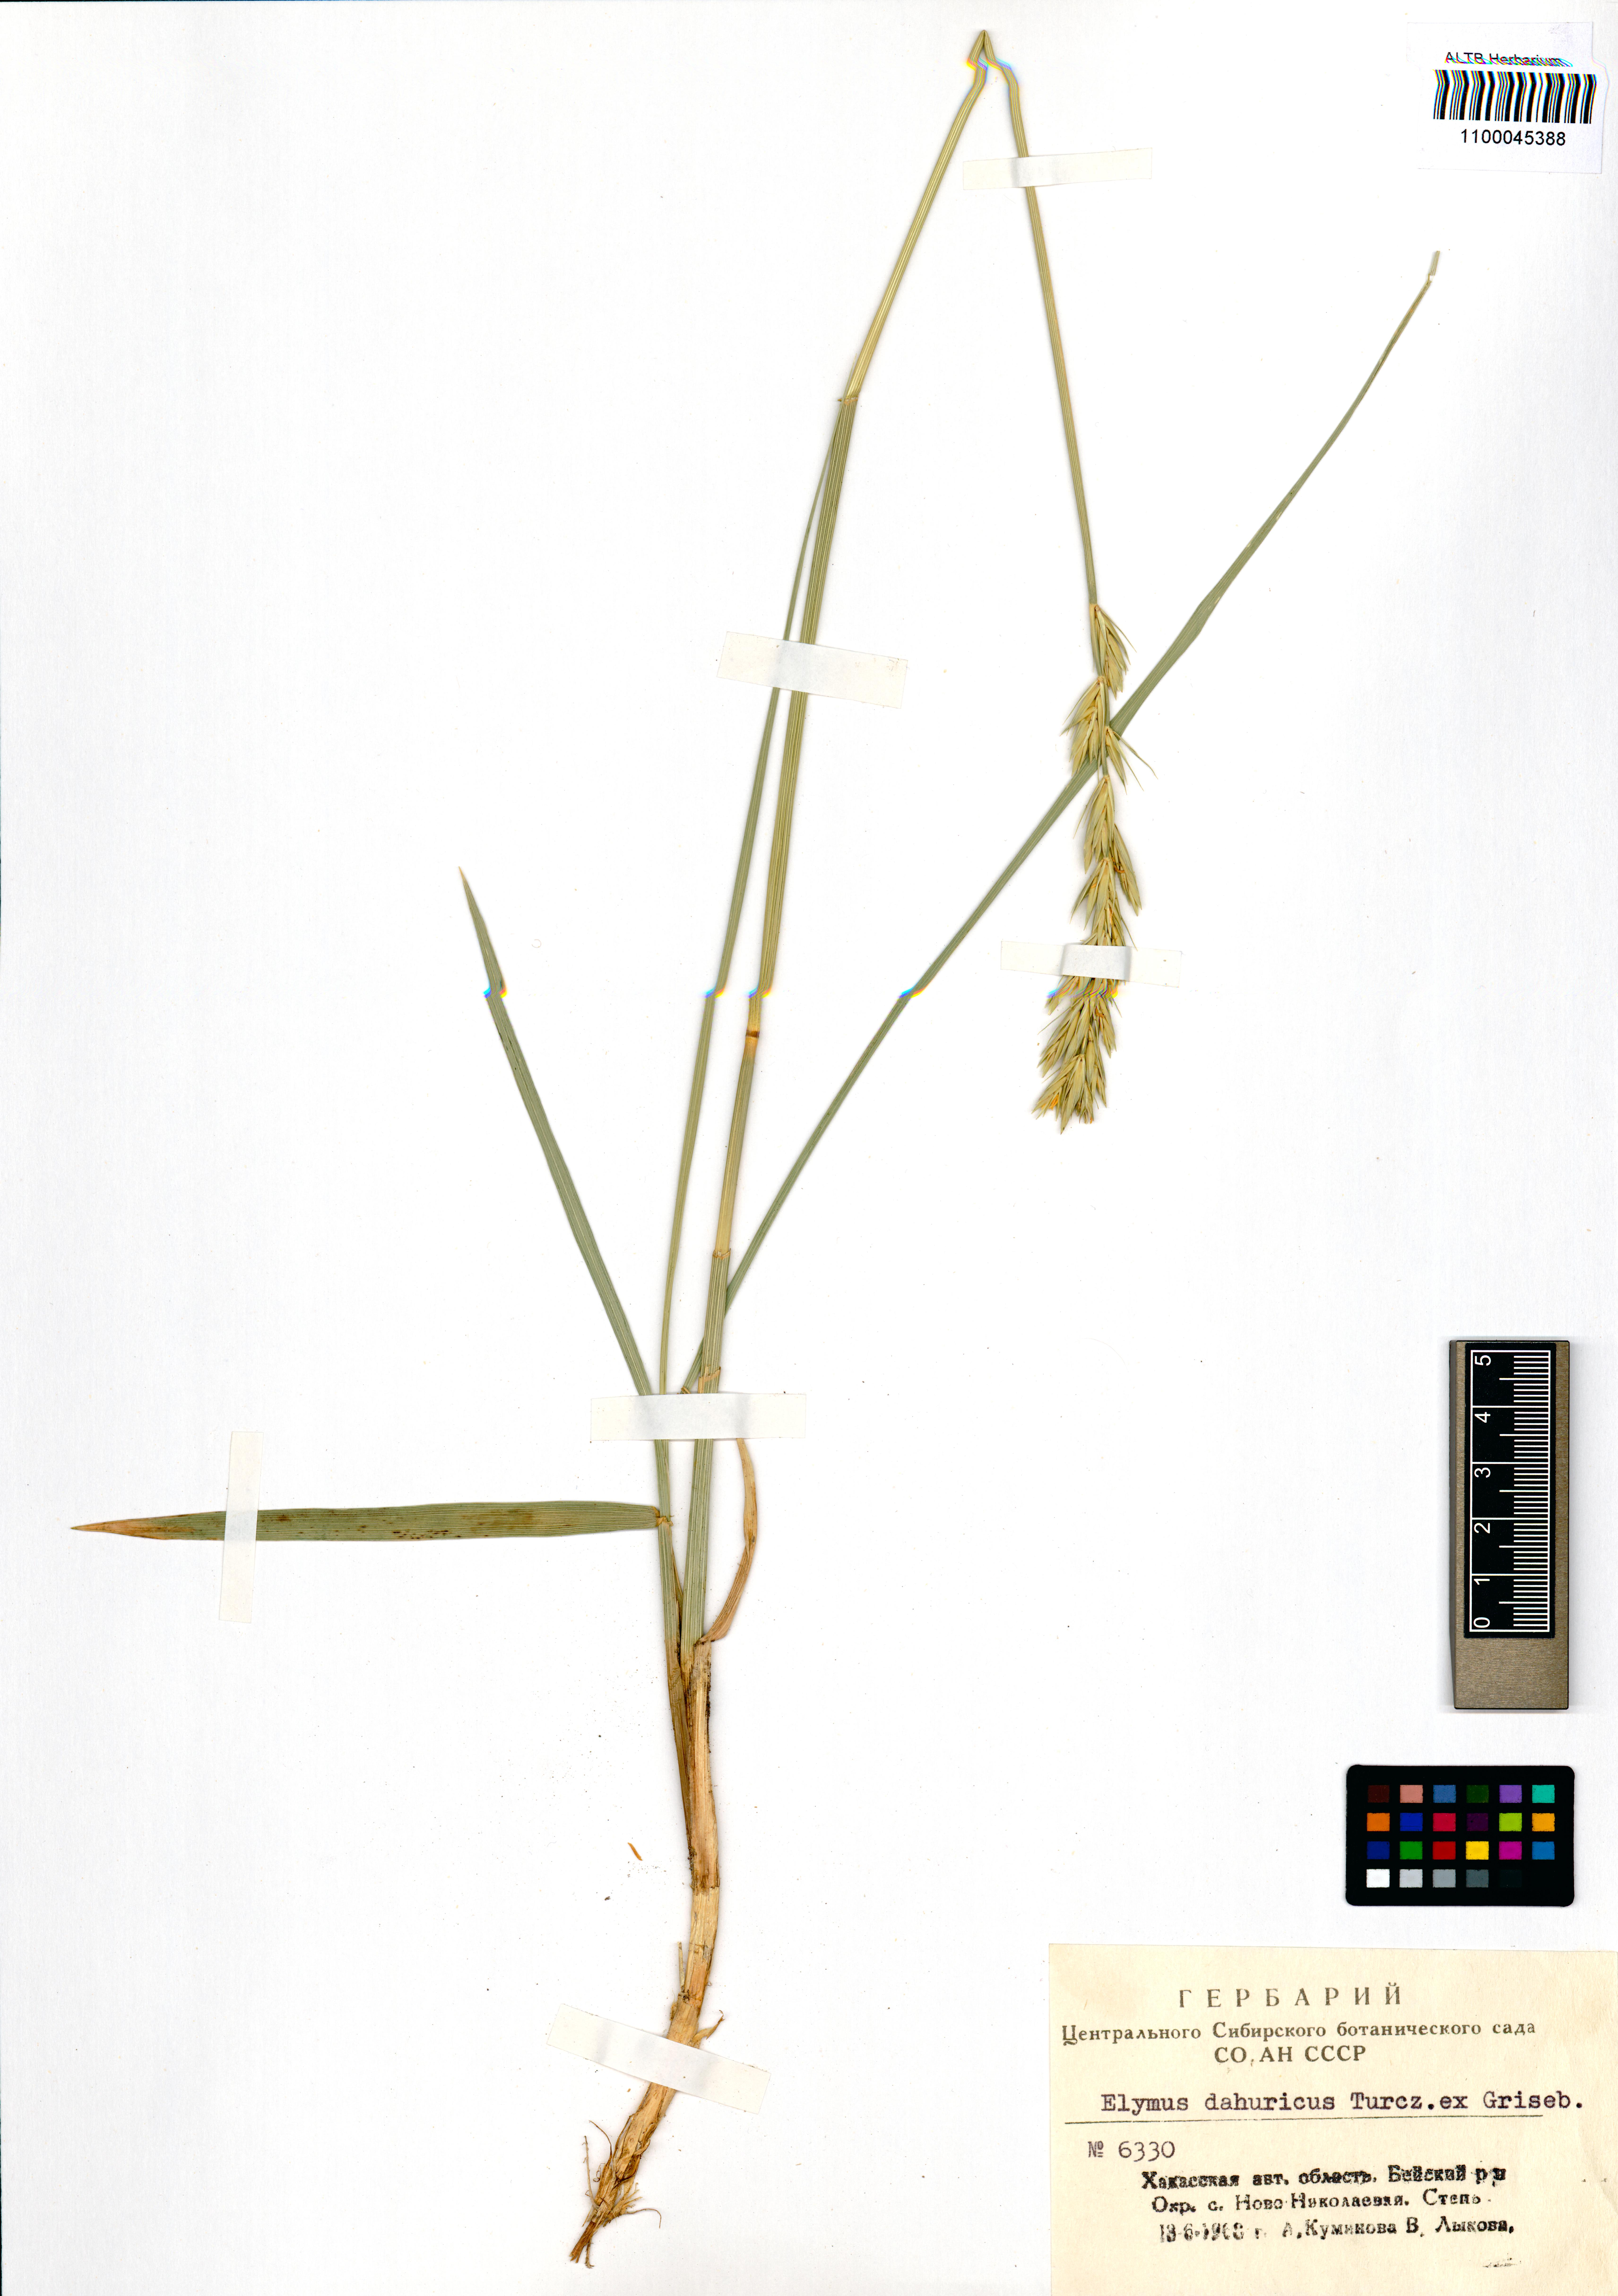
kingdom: Plantae
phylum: Tracheophyta
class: Liliopsida
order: Poales
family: Poaceae
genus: Elymus
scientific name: Elymus dahuricus
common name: Dahurian wild rye
